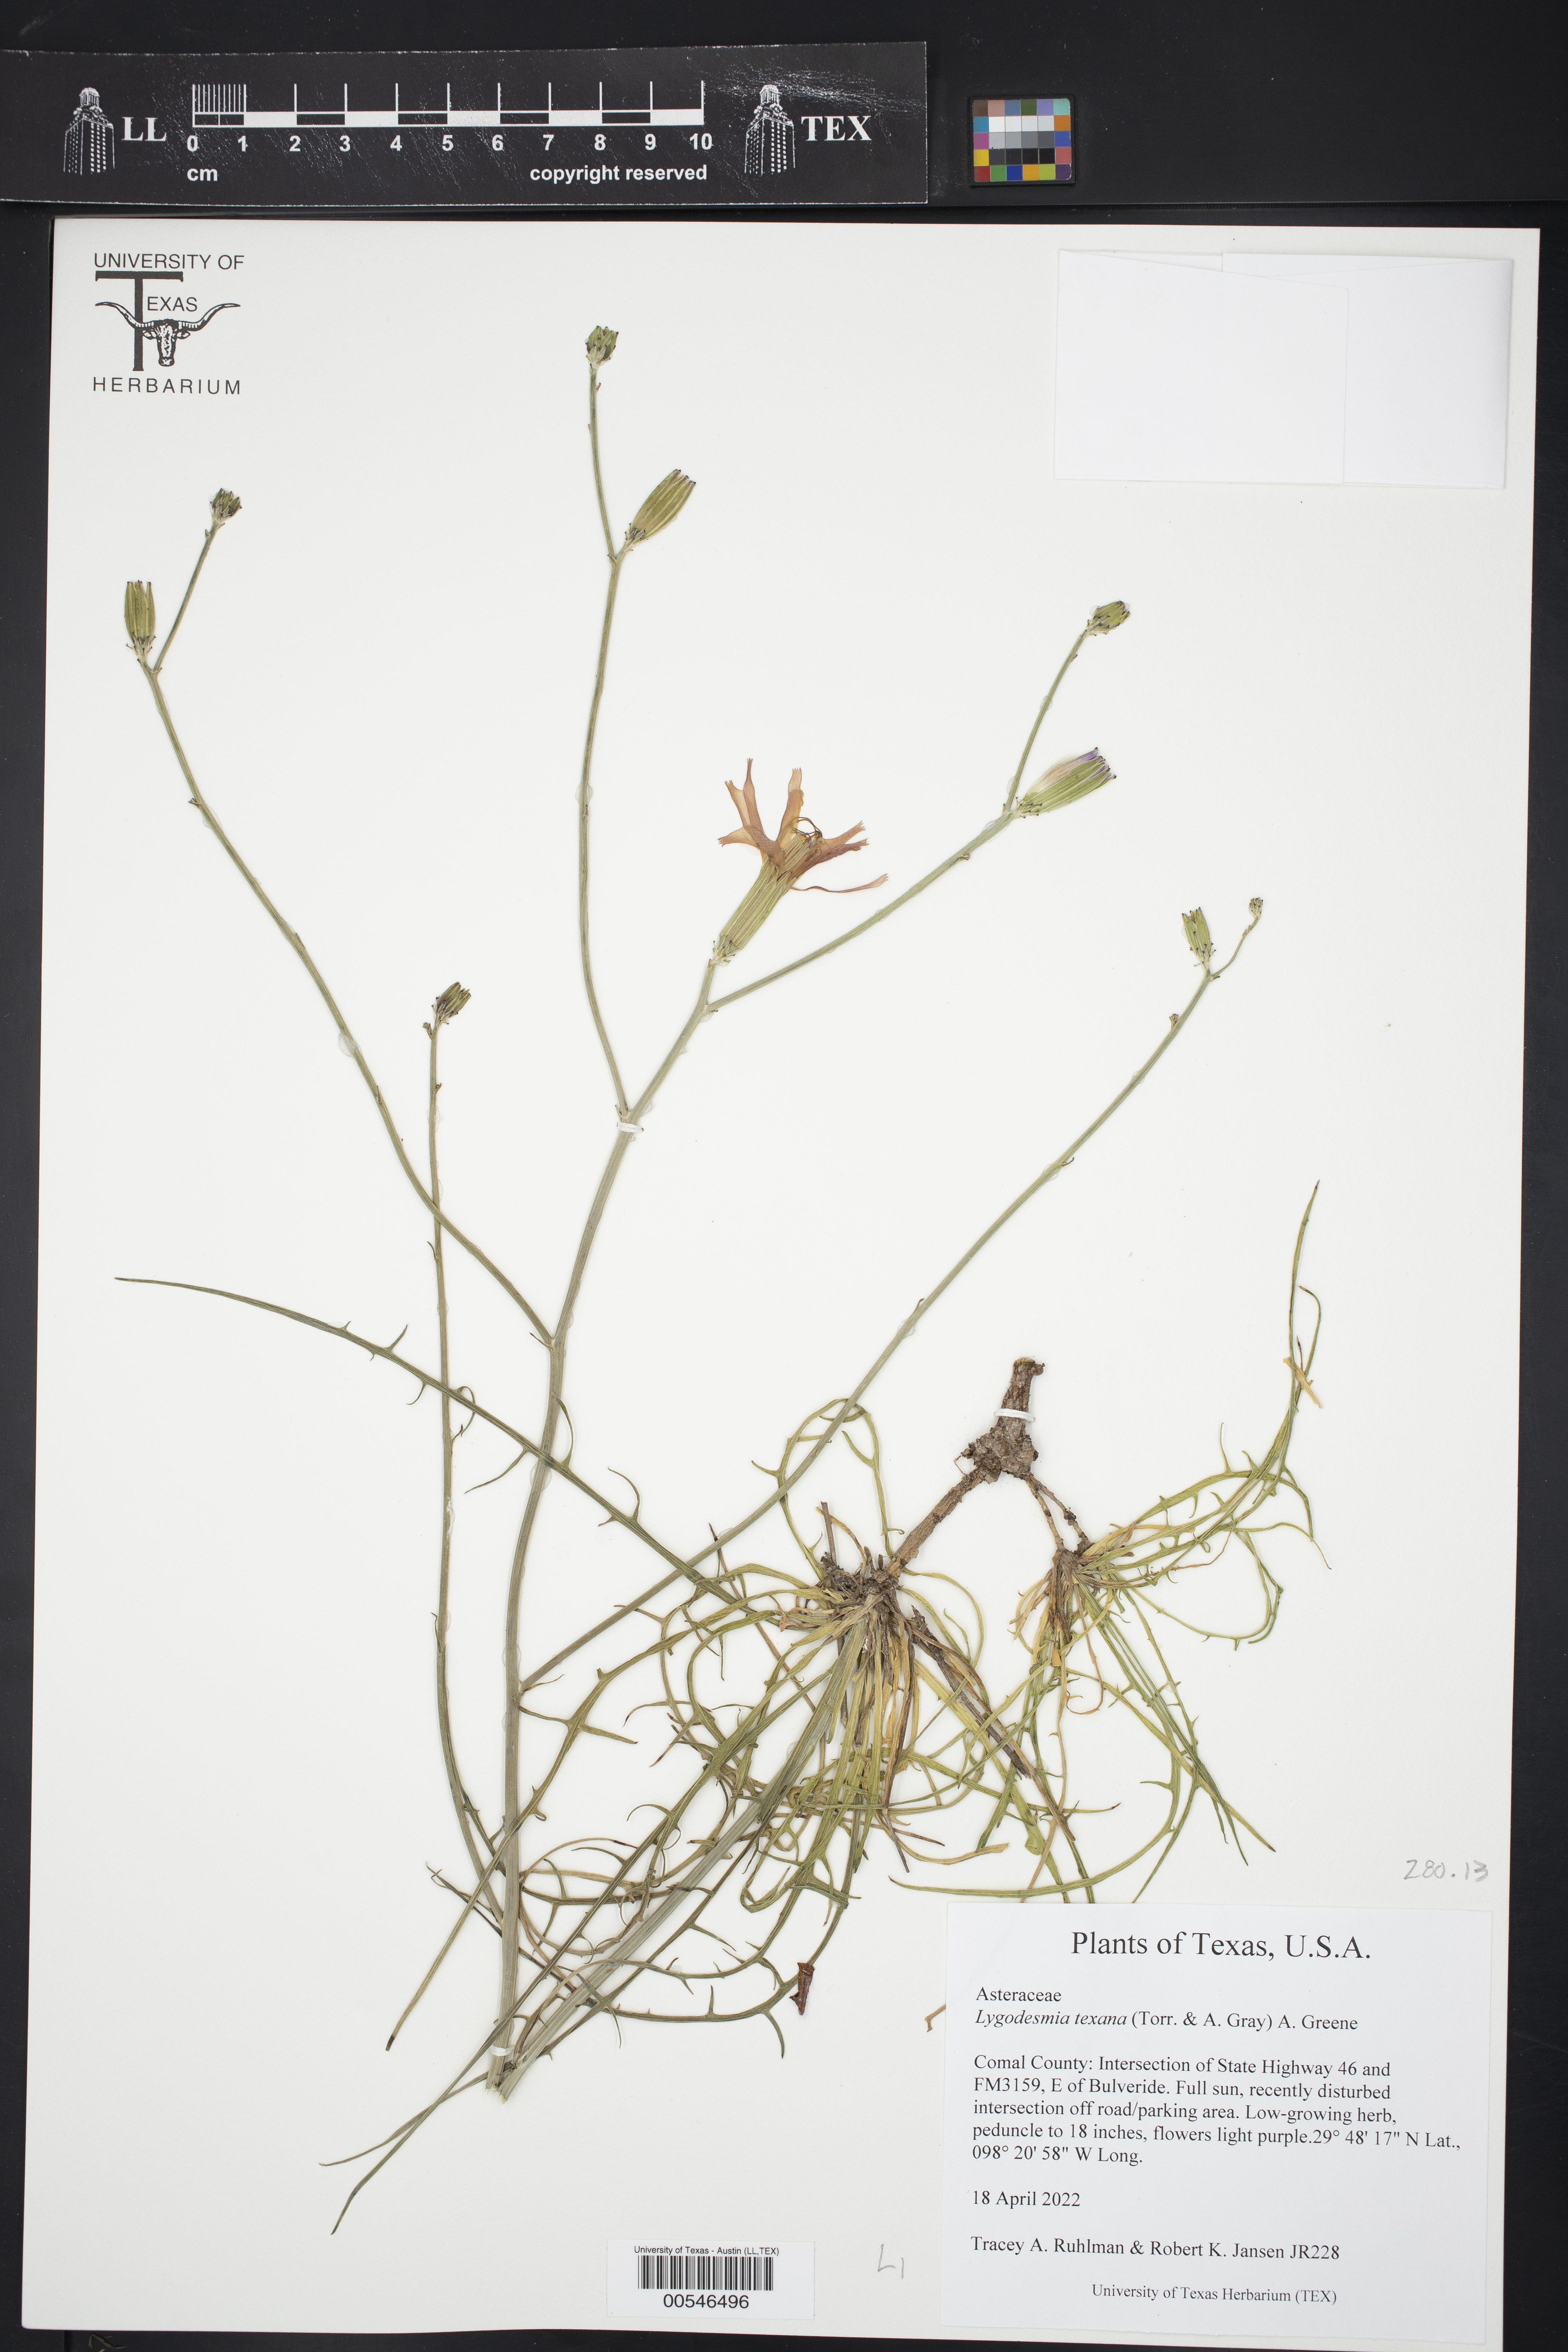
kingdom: Plantae
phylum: Tracheophyta
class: Magnoliopsida
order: Asterales
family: Asteraceae
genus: Lygodesmia
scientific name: Lygodesmia texana
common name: Texas skeleton-plant
